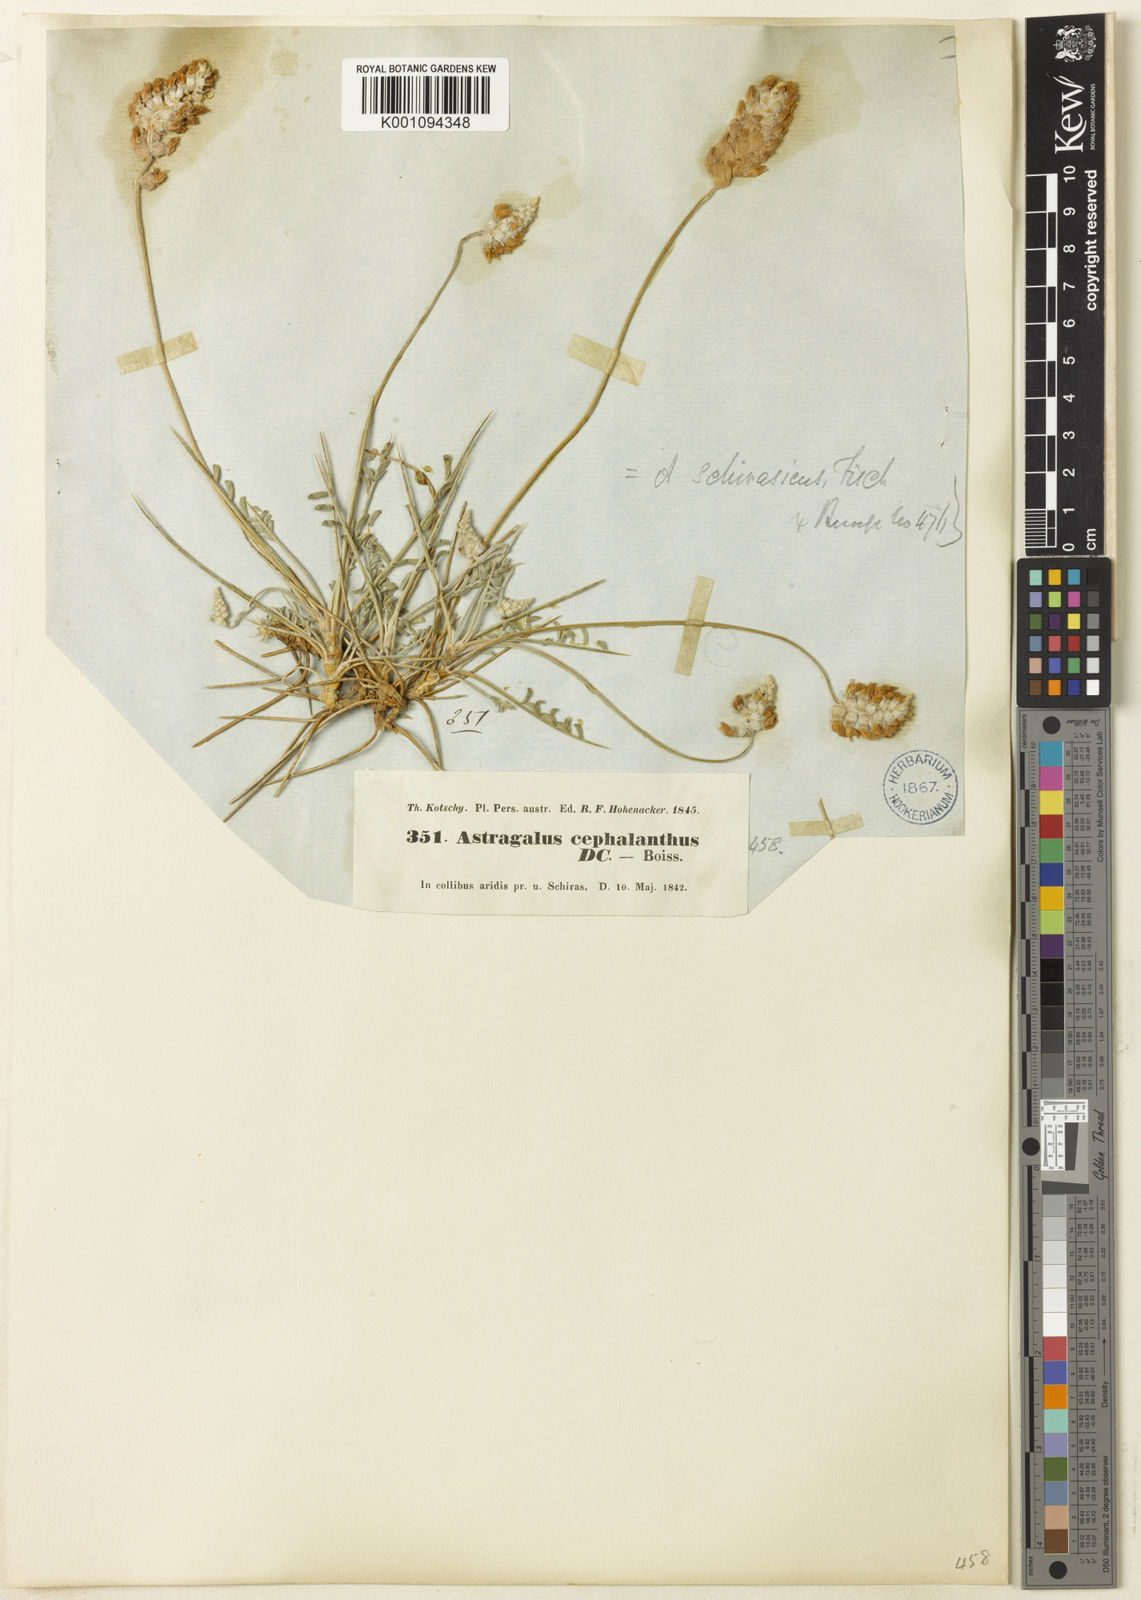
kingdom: Plantae
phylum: Tracheophyta
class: Magnoliopsida
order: Fabales
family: Fabaceae
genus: Astragalus
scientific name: Astragalus
